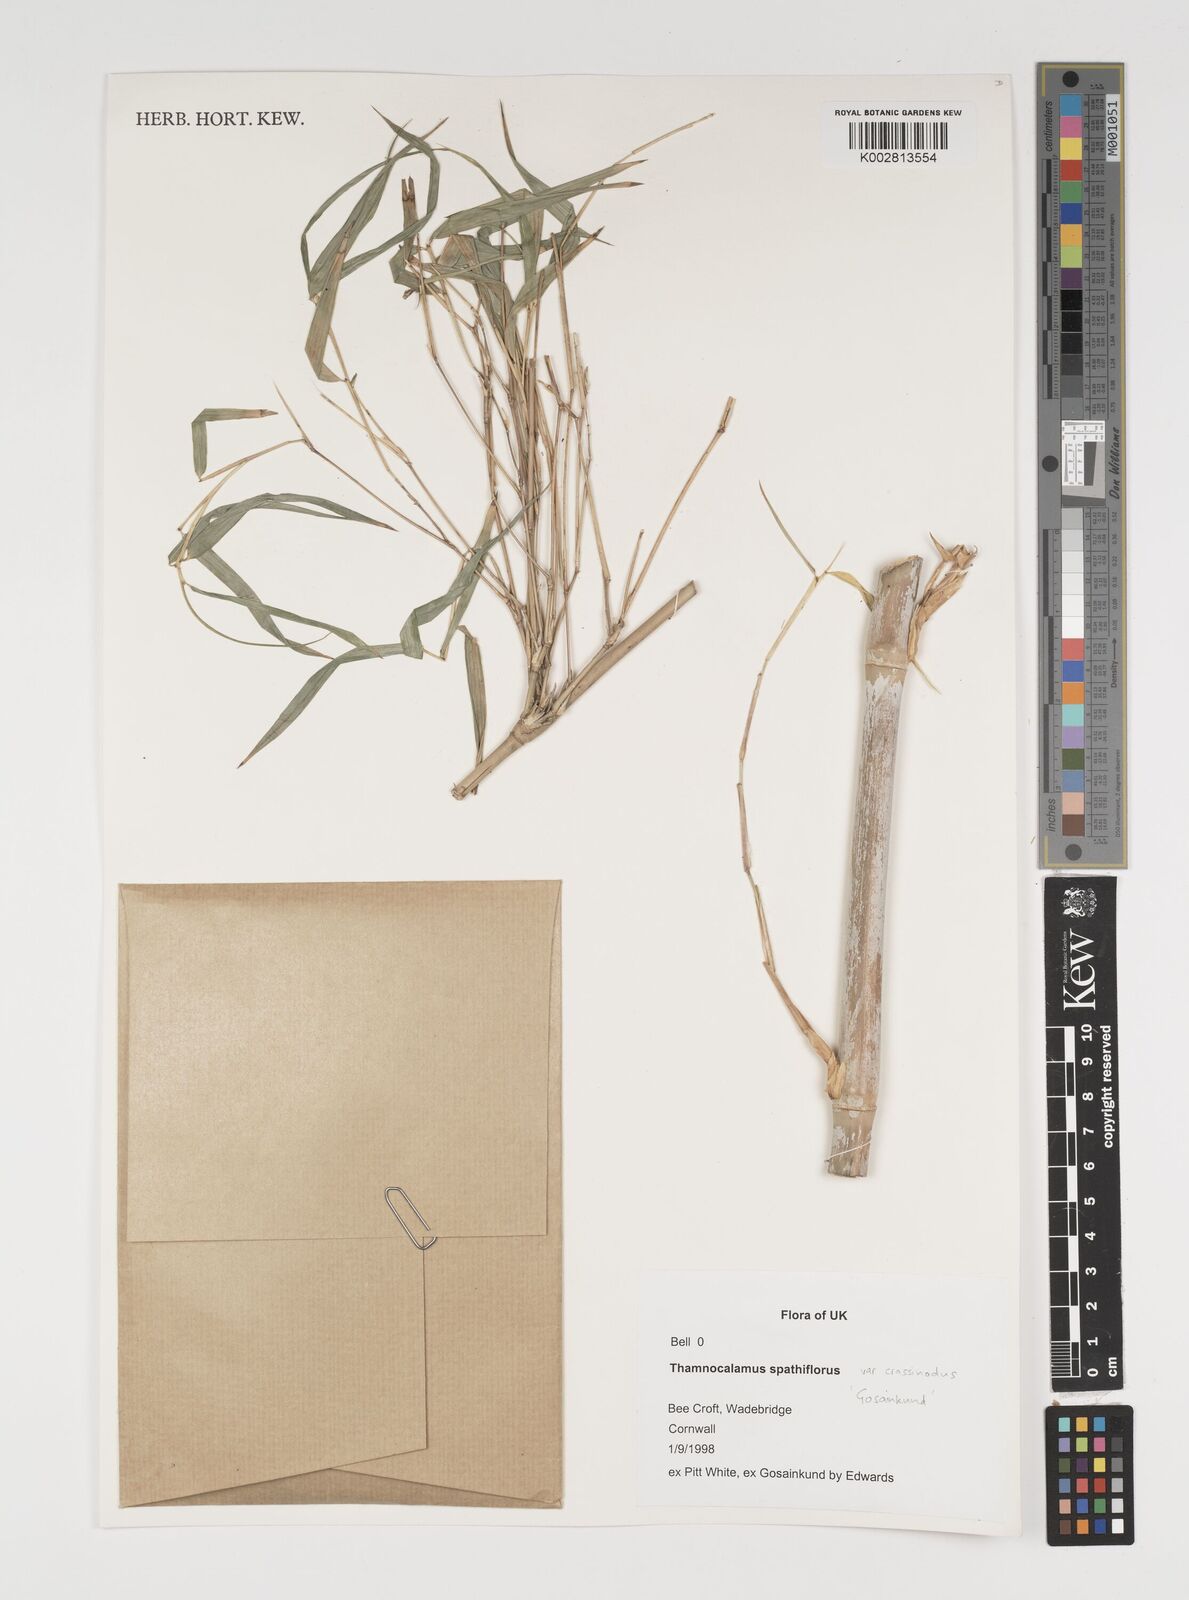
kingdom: Plantae
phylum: Tracheophyta
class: Liliopsida
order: Poales
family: Poaceae
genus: Fargesia
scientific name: Fargesia murielae
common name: Umbrella bamboo
